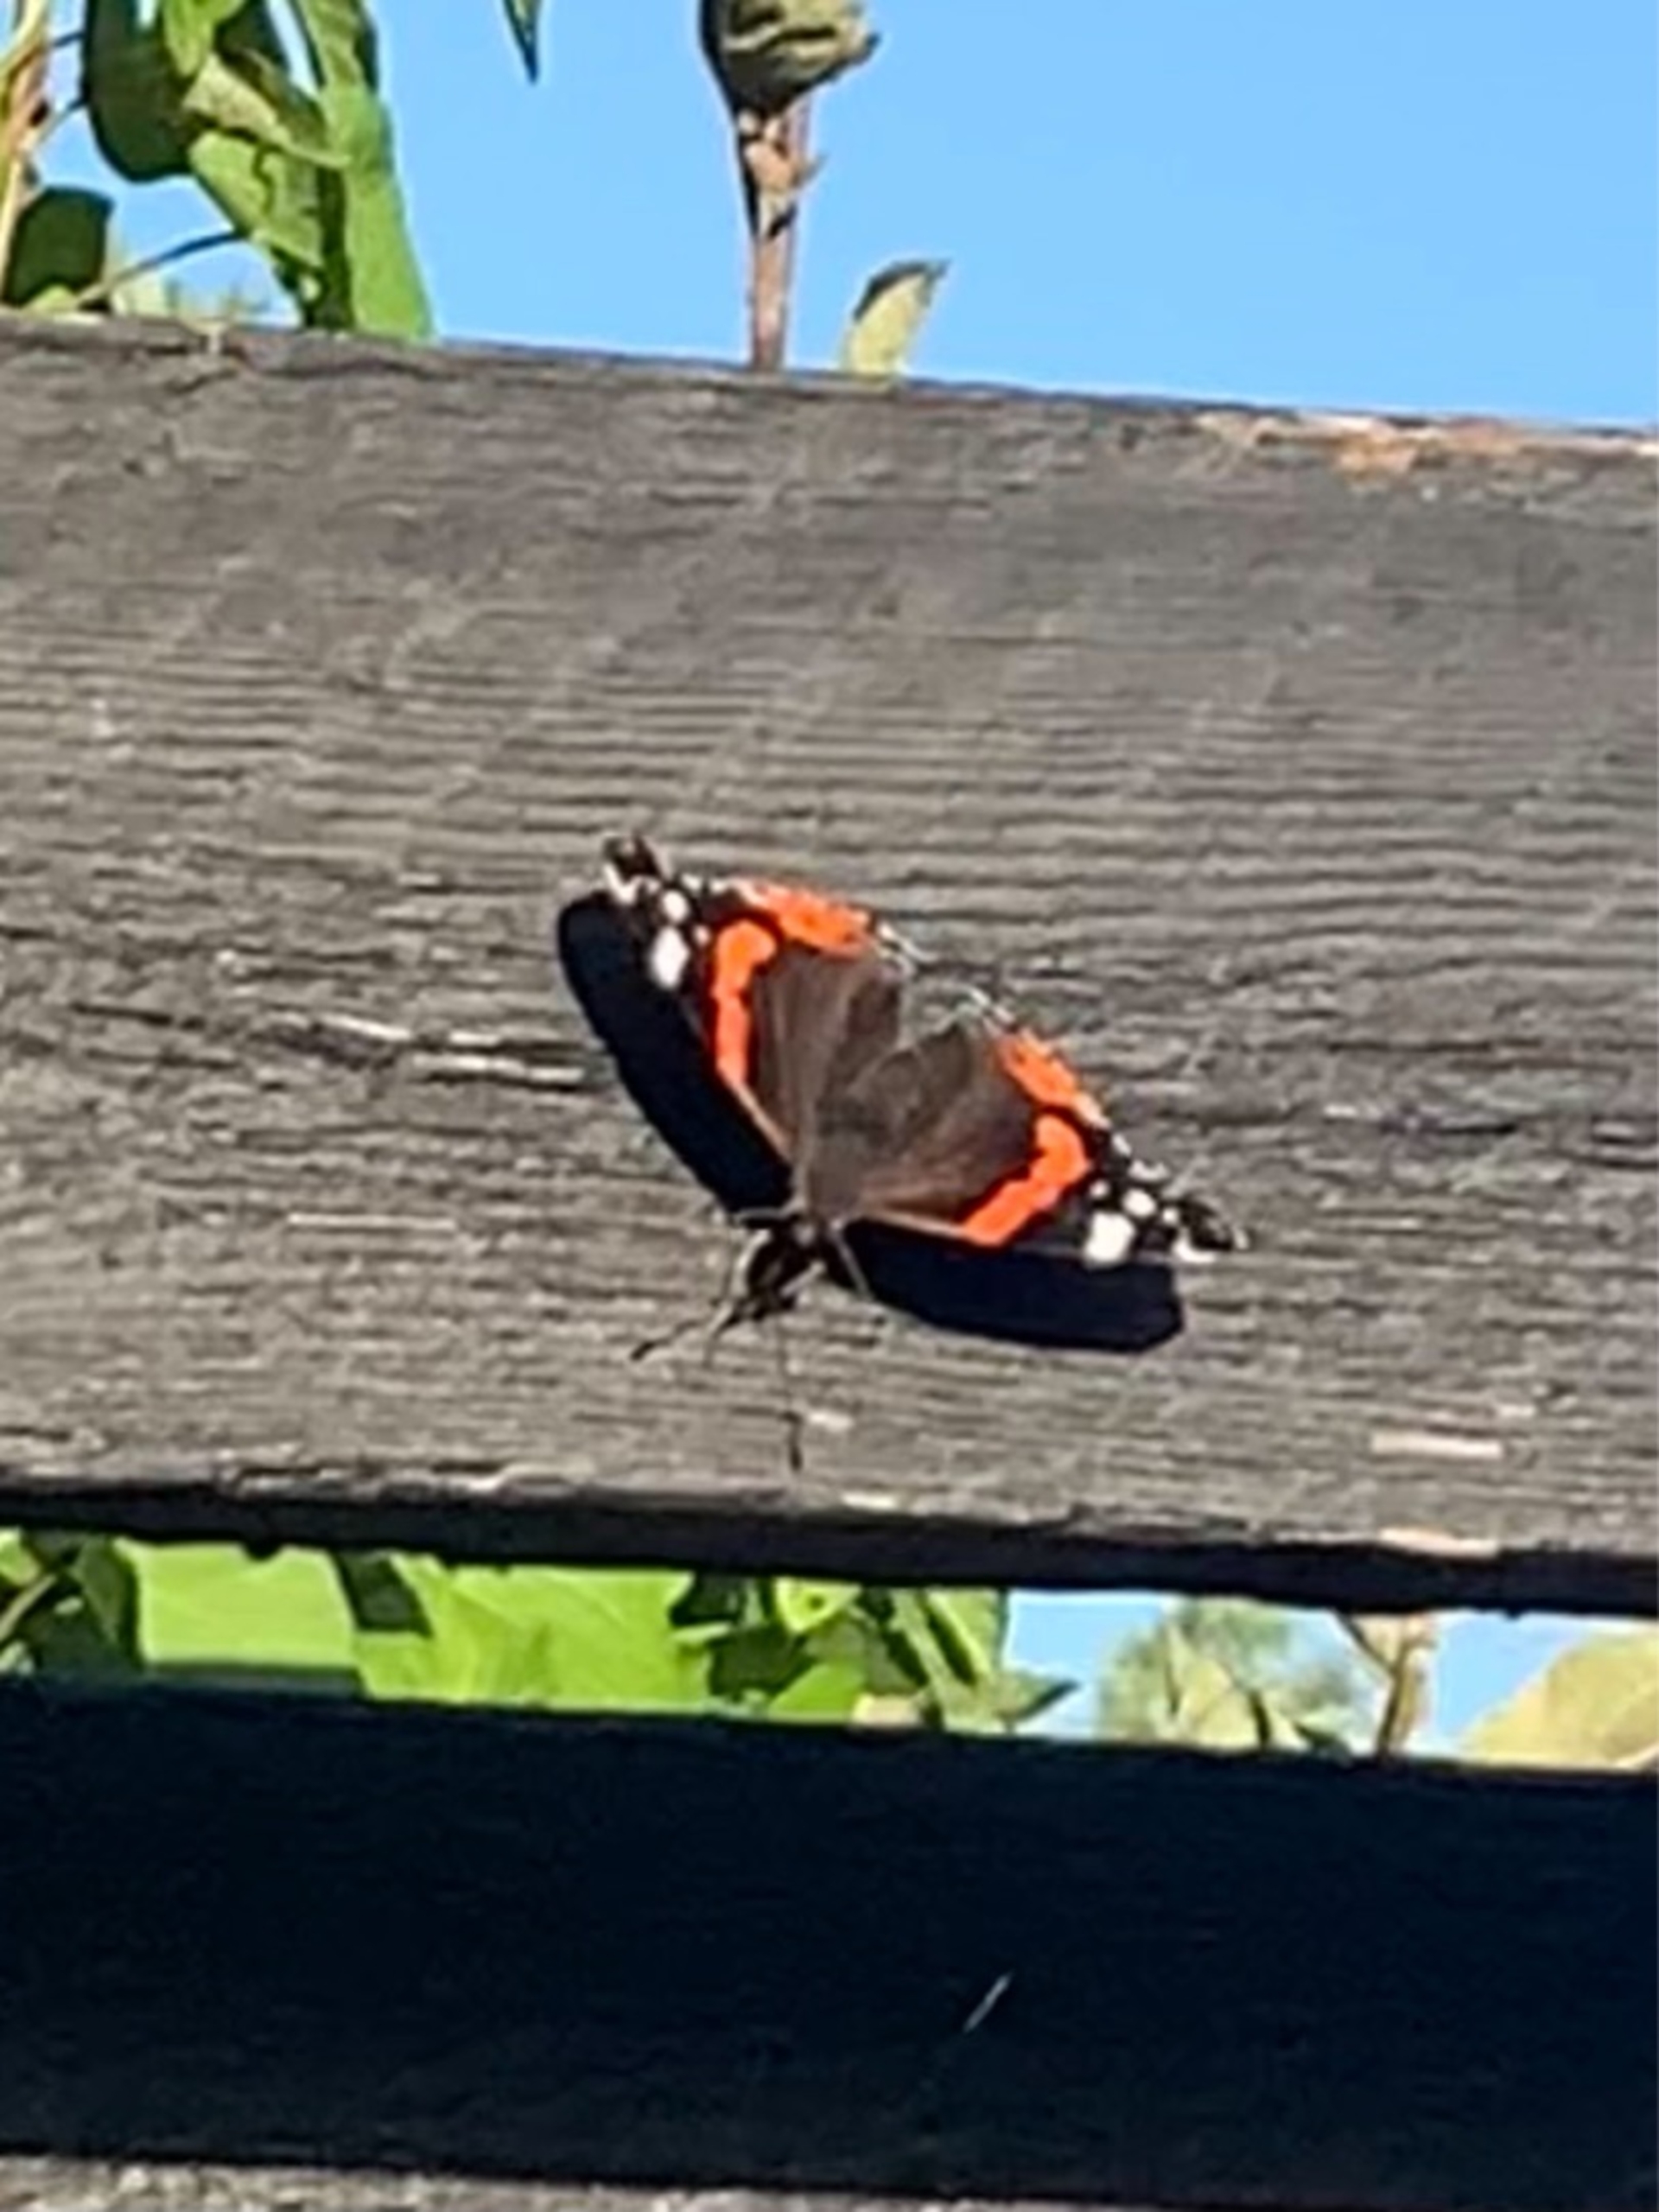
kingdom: Animalia
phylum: Arthropoda
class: Insecta
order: Lepidoptera
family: Nymphalidae
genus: Vanessa
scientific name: Vanessa atalanta
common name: Admiral
